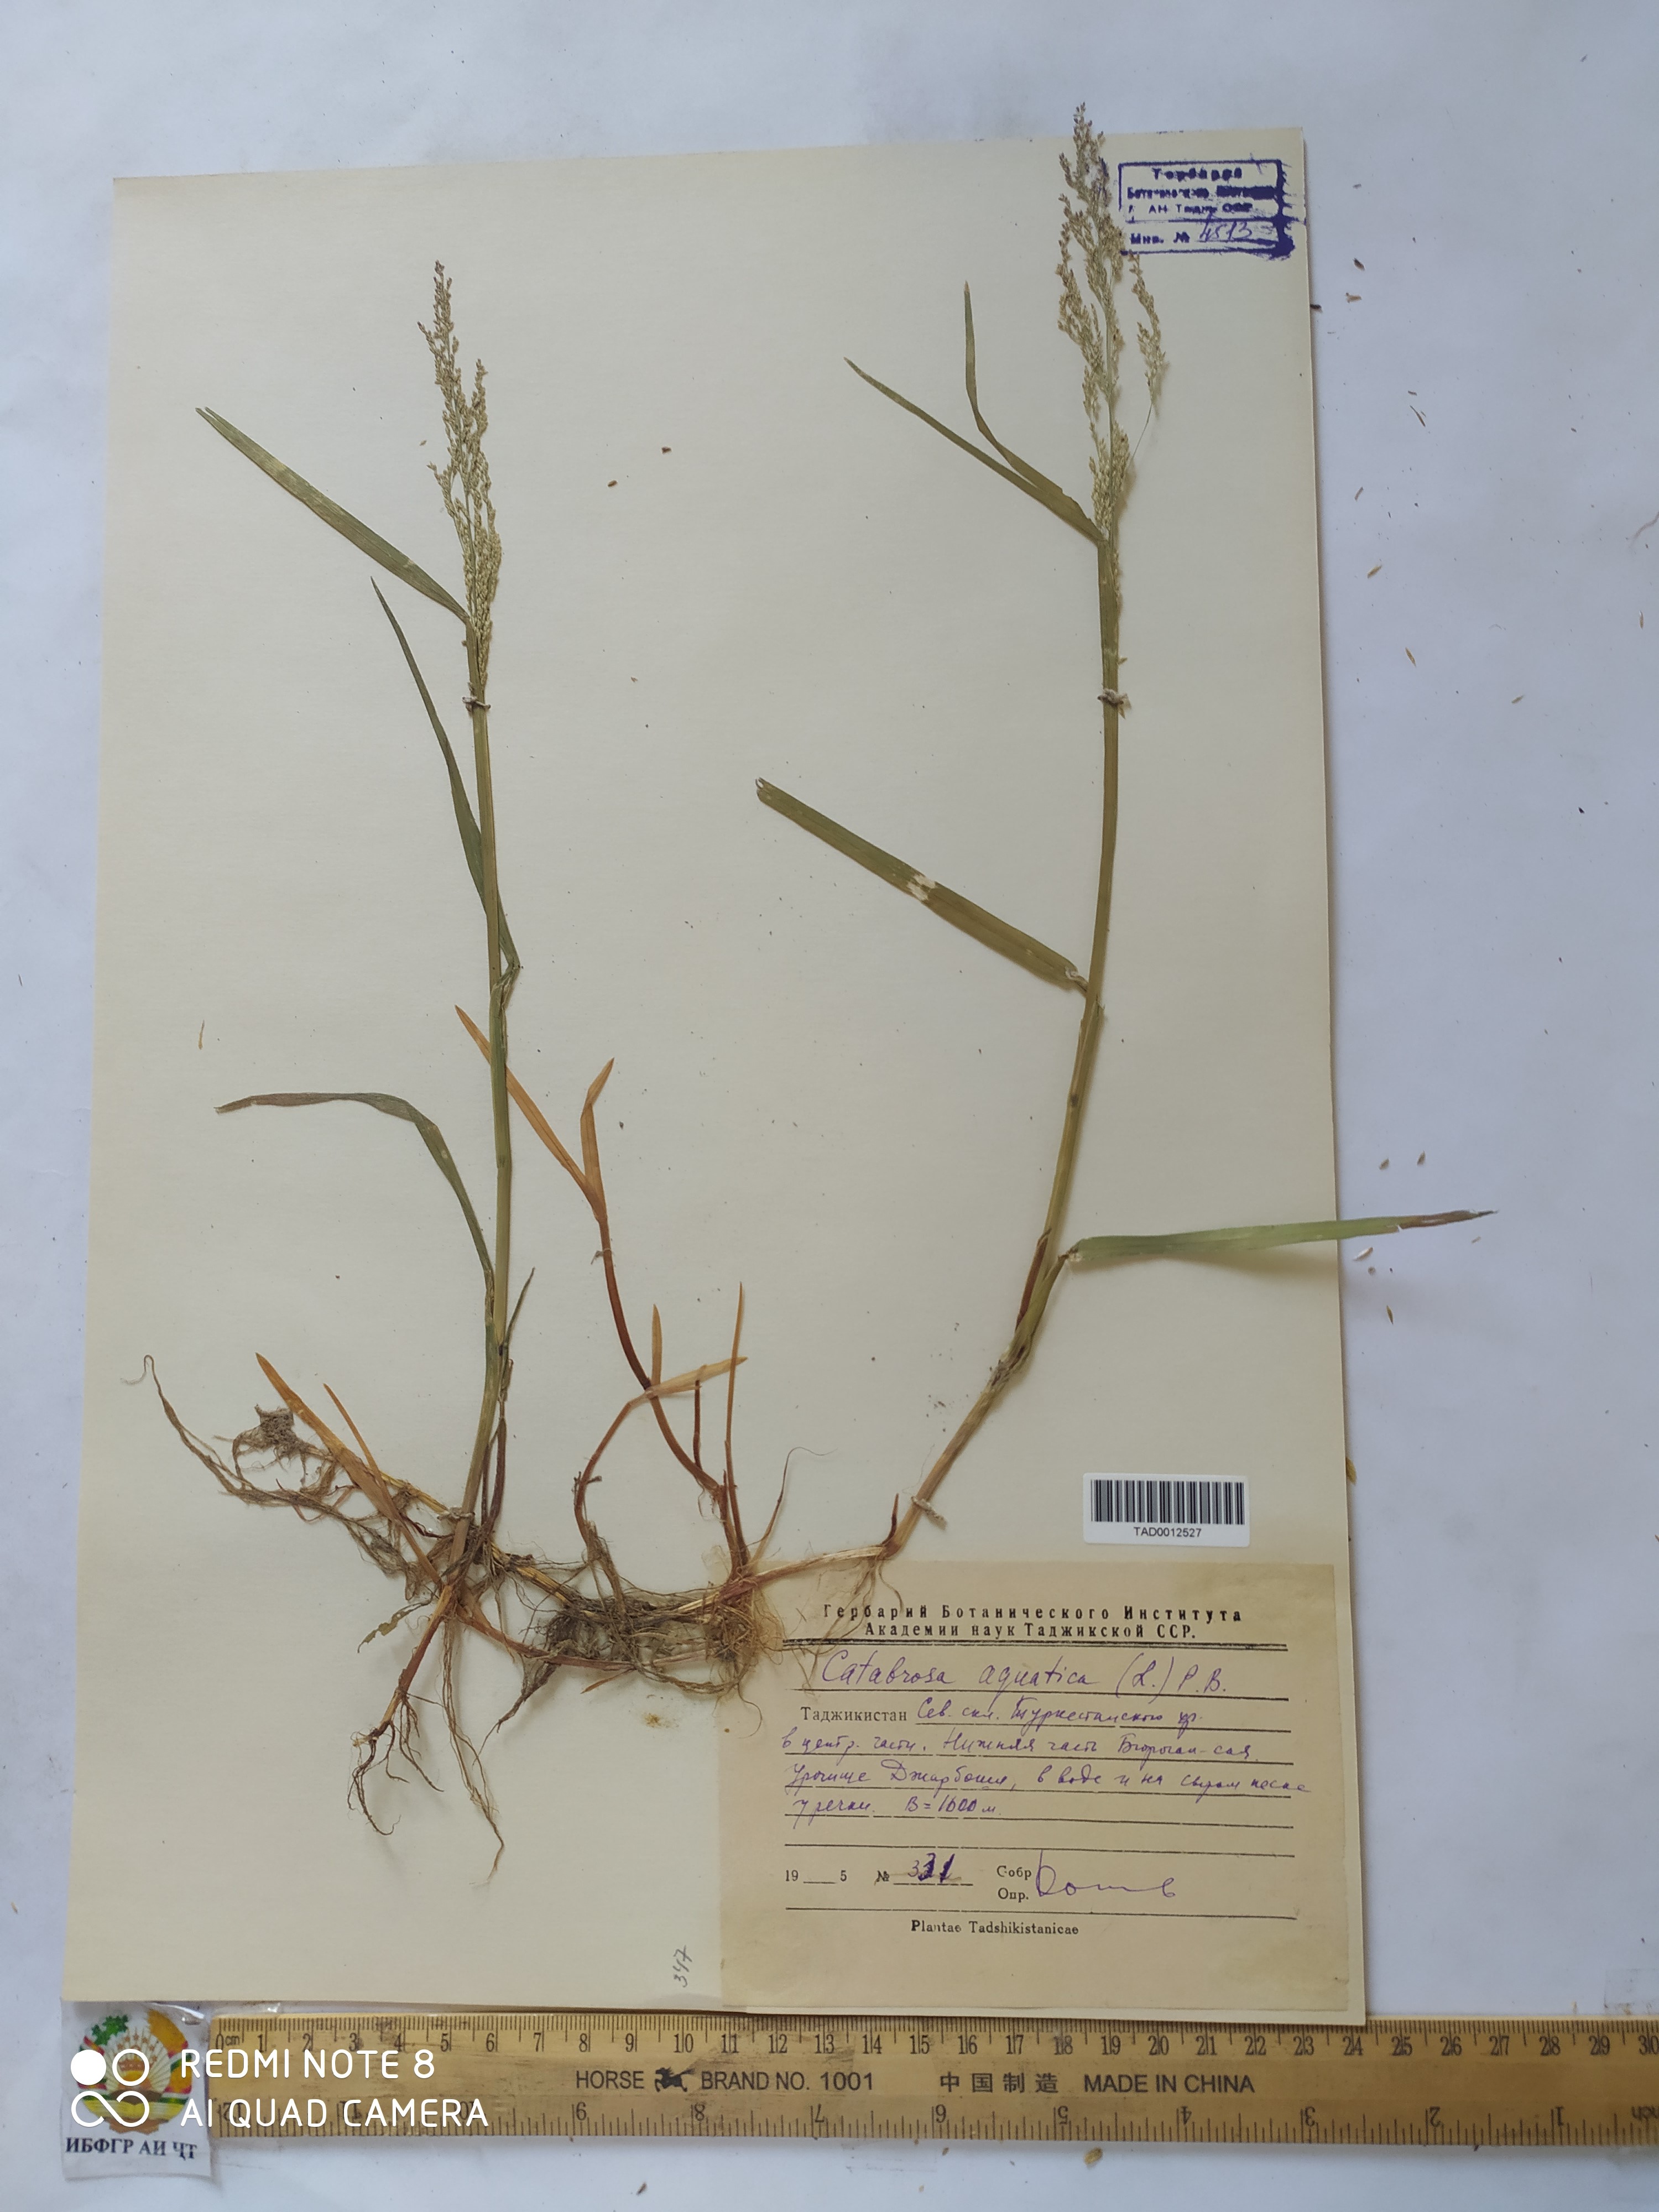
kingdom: Plantae
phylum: Tracheophyta
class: Liliopsida
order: Poales
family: Poaceae
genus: Catabrosa
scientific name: Catabrosa aquatica
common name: Whorl-grass
